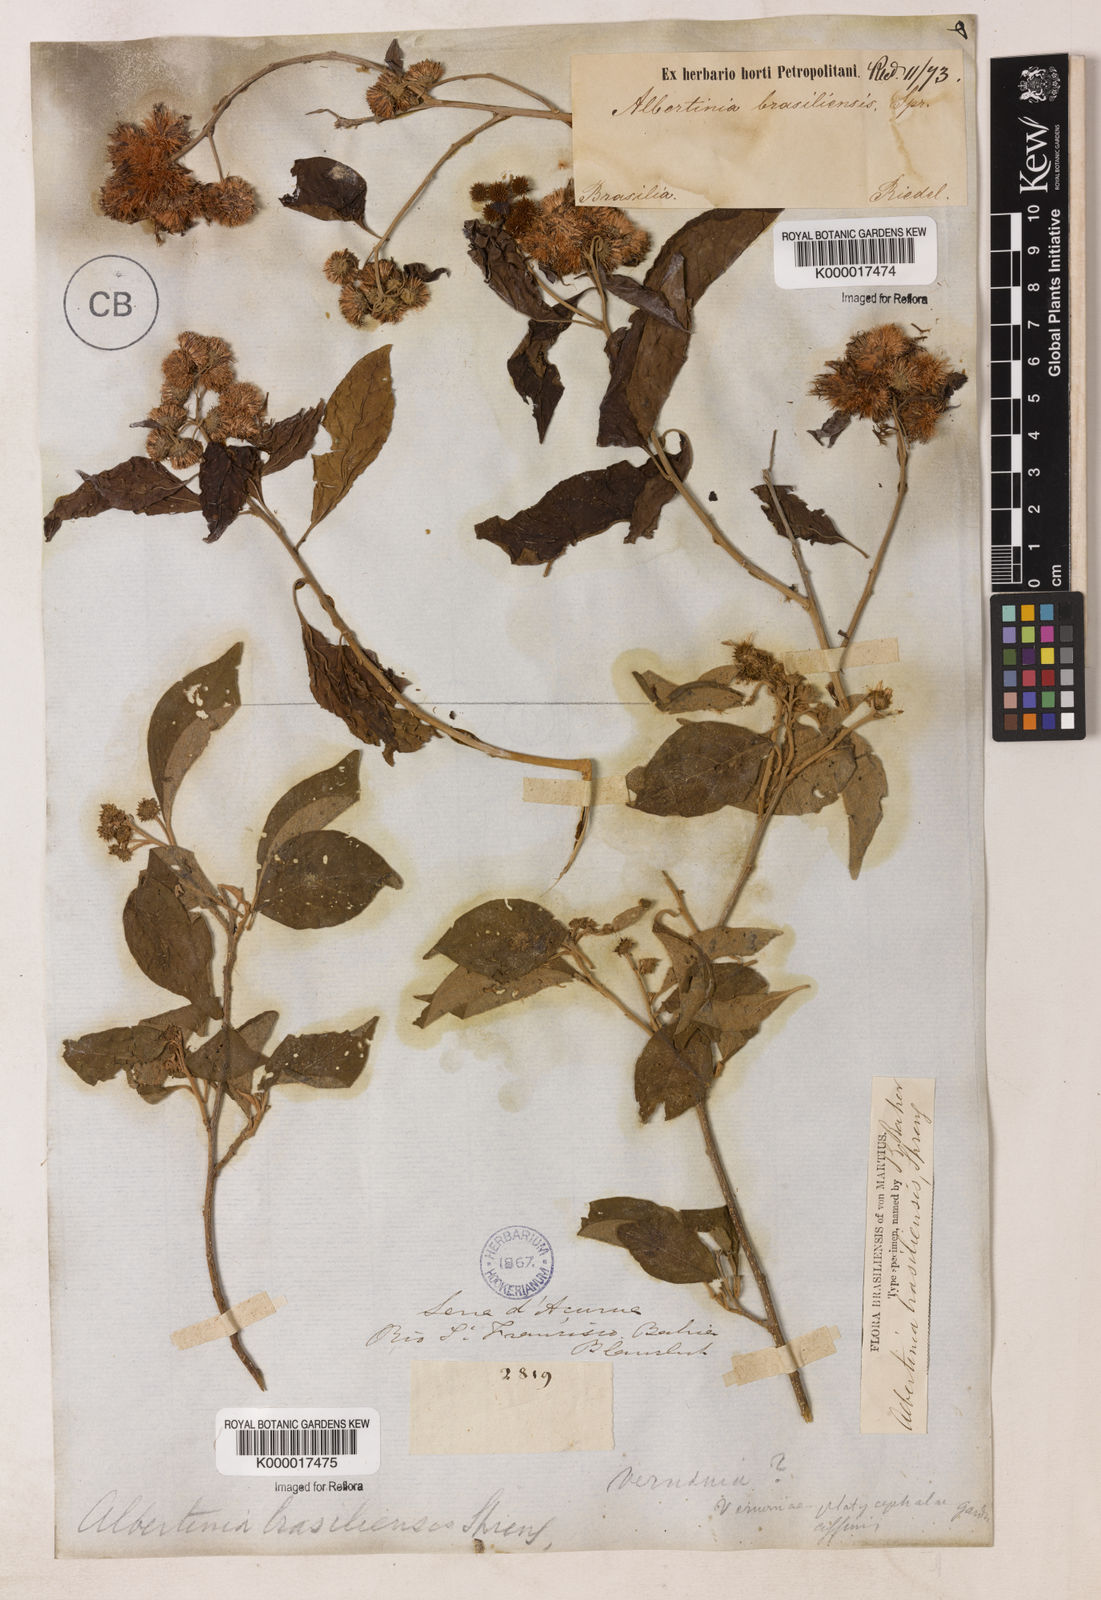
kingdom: Plantae
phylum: Tracheophyta
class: Magnoliopsida
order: Asterales
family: Asteraceae
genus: Albertinia
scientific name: Albertinia brasiliensis
